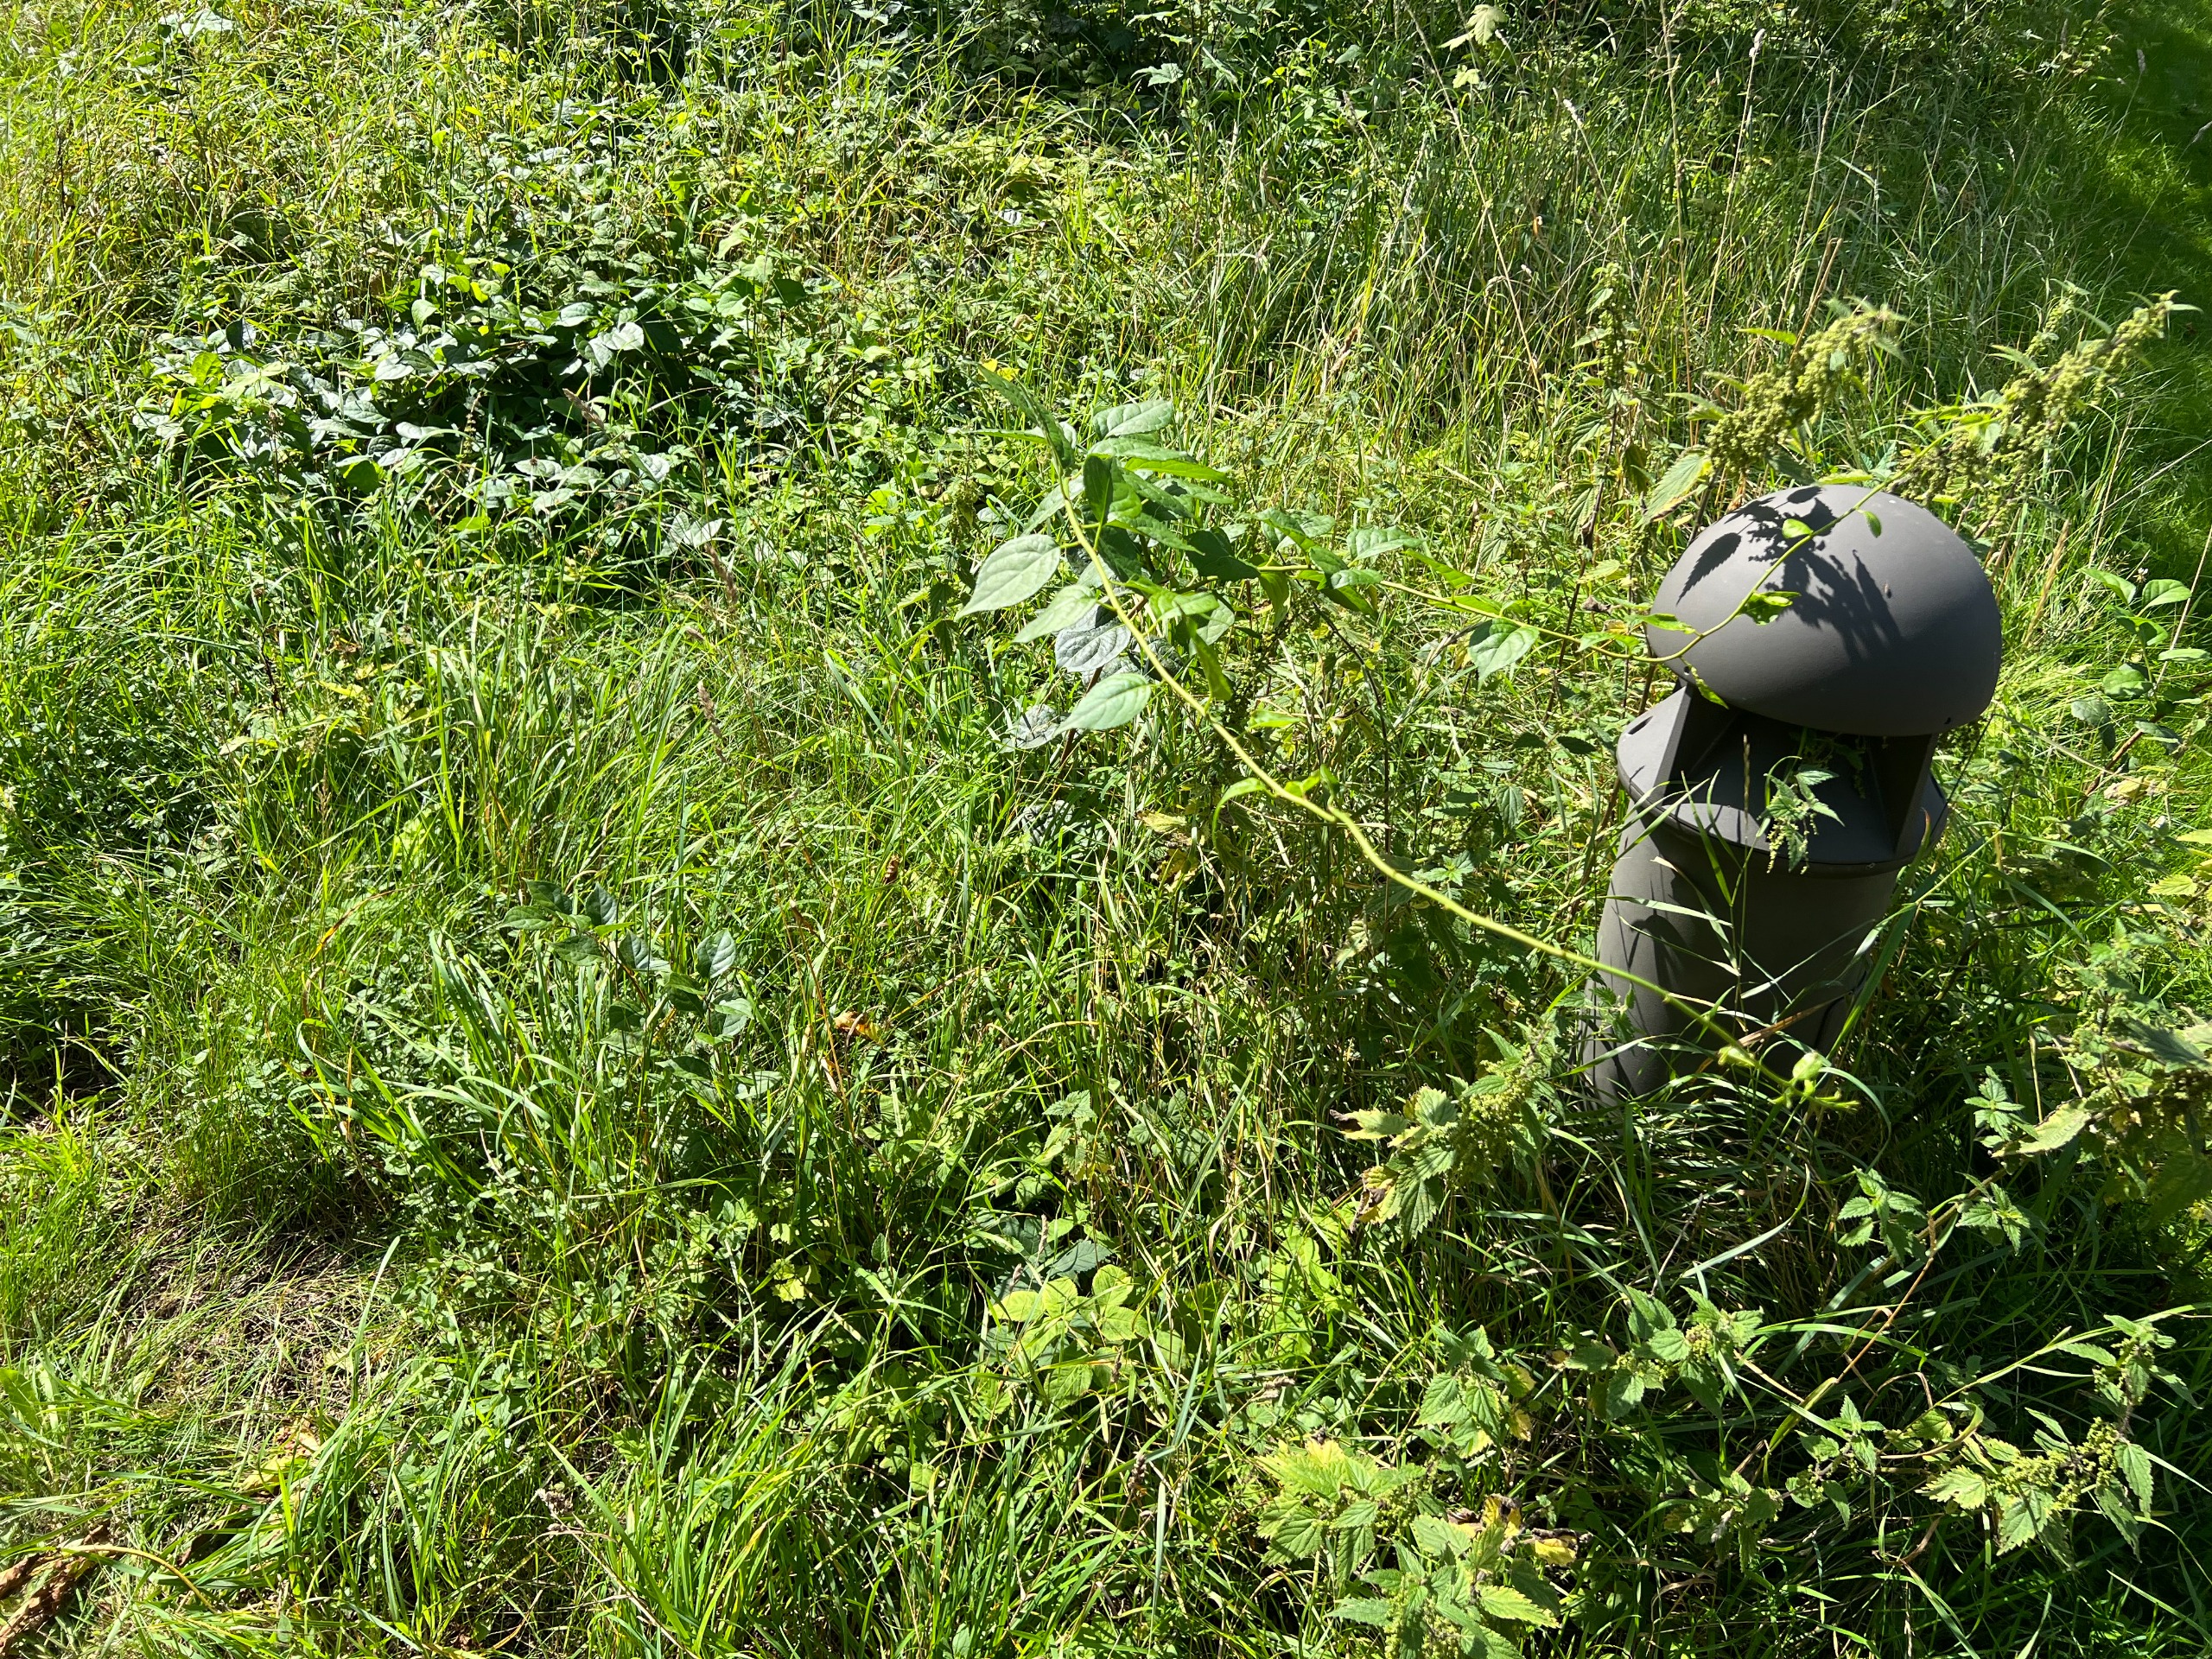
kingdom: Plantae
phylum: Tracheophyta
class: Magnoliopsida
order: Celastrales
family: Celastraceae
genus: Celastrus
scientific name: Celastrus orbiculatus
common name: Træmorder
